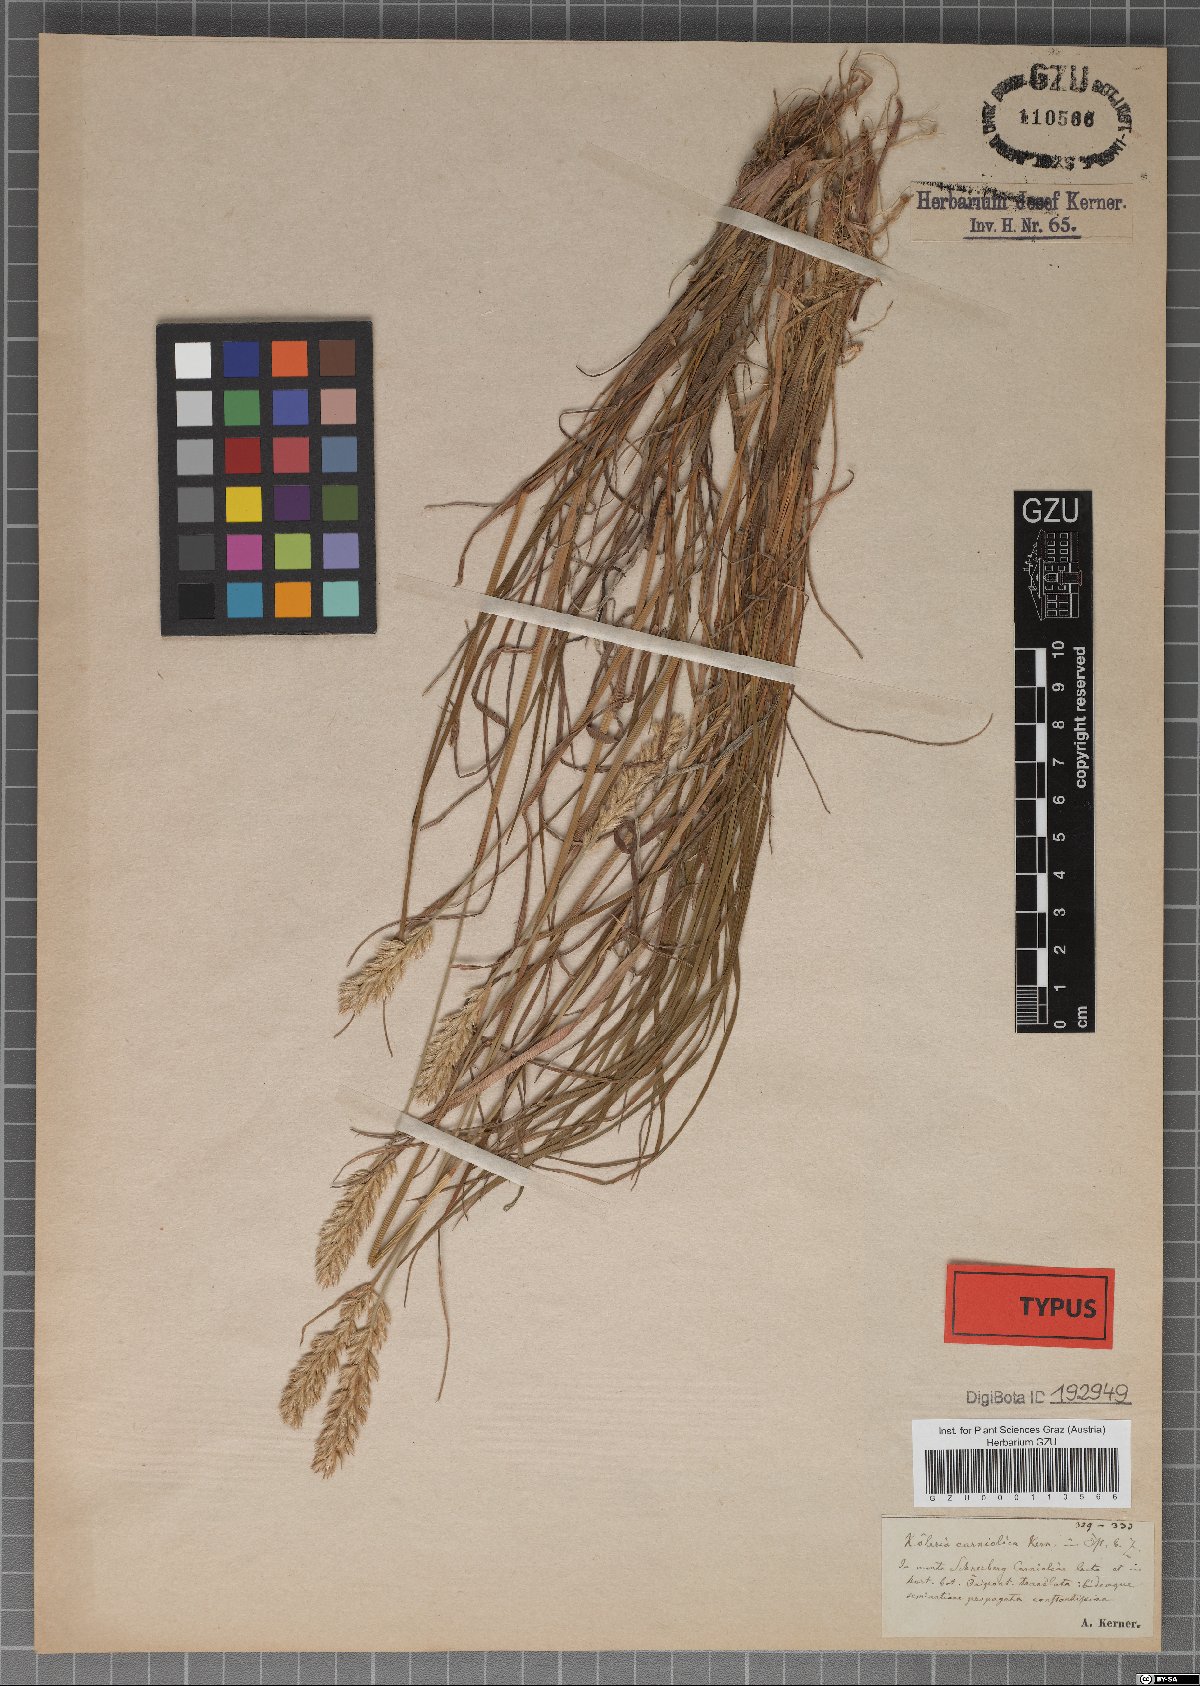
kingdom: Plantae
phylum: Tracheophyta
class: Liliopsida
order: Poales
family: Poaceae
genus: Koeleria
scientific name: Koeleria eriostachya
